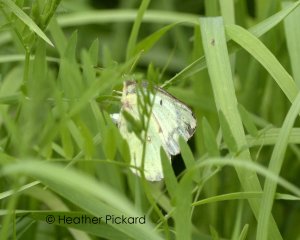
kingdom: Animalia
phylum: Arthropoda
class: Insecta
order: Lepidoptera
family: Pieridae
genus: Colias
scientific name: Colias philodice
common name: Clouded Sulphur
